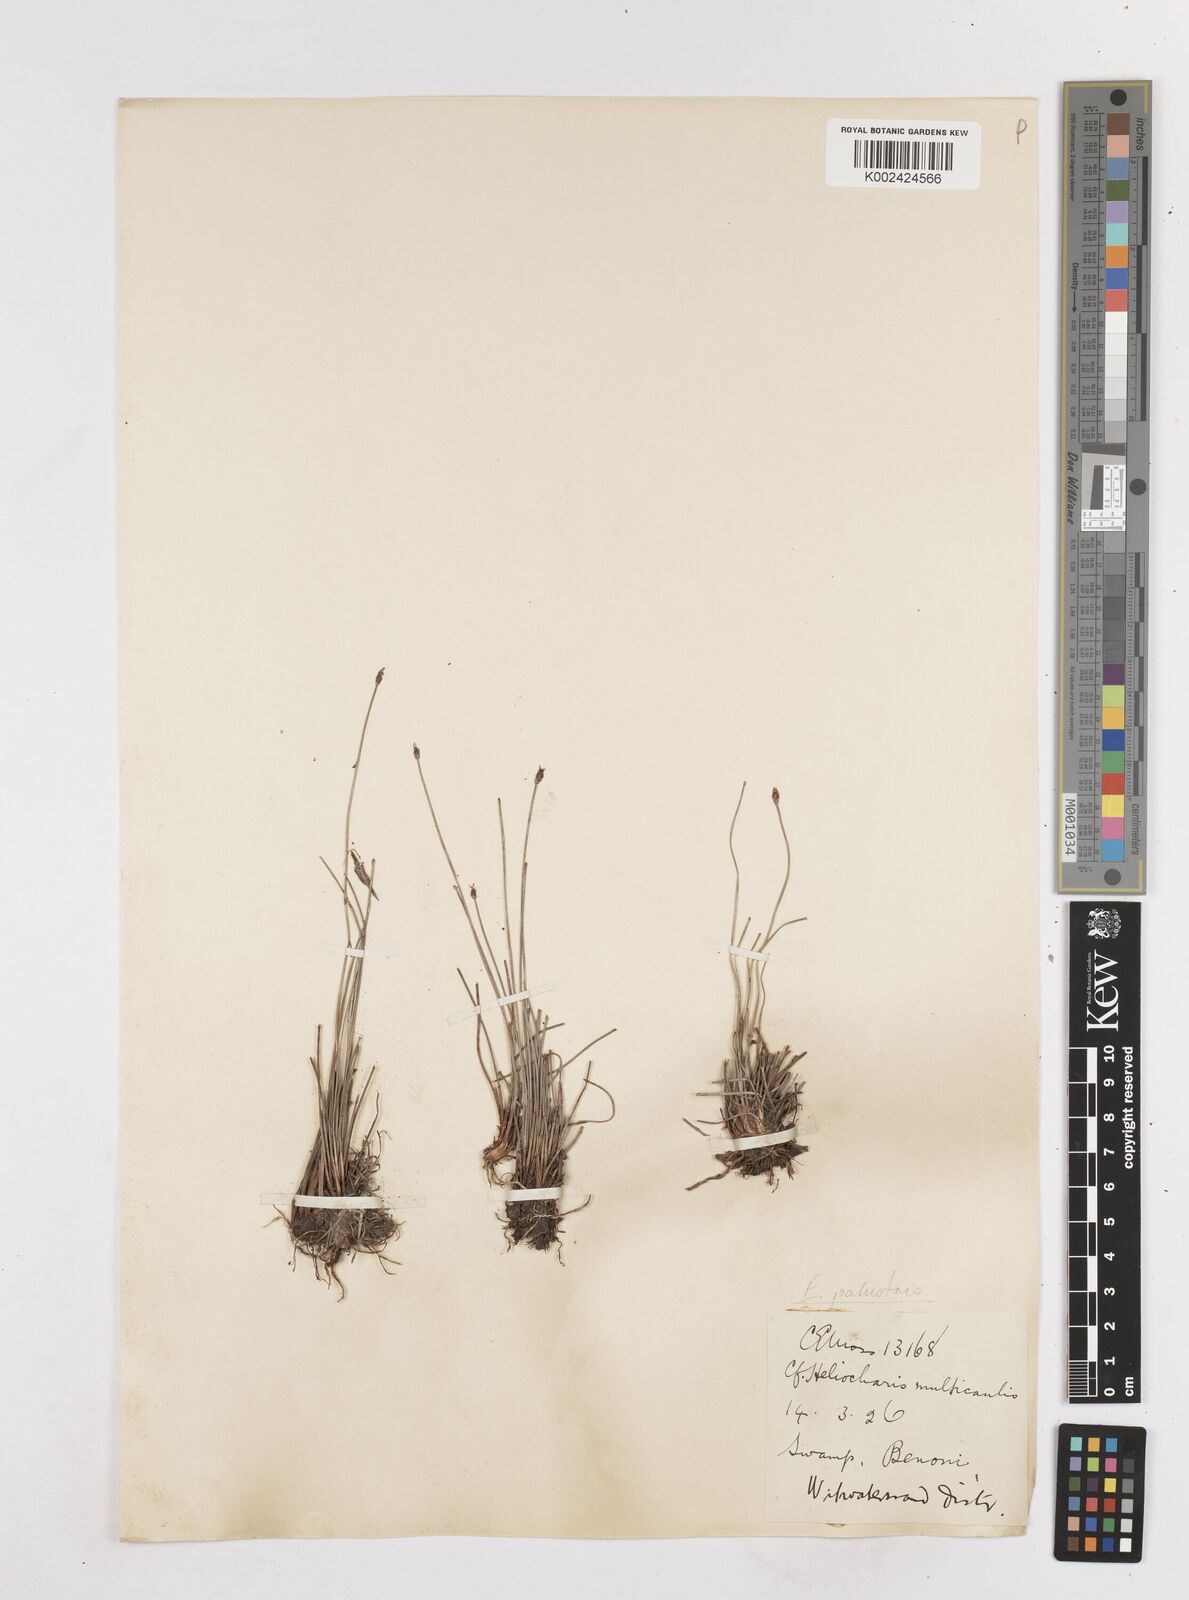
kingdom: Plantae
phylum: Tracheophyta
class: Liliopsida
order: Poales
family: Cyperaceae
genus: Eleocharis
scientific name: Eleocharis palustris
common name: Common spike-rush
